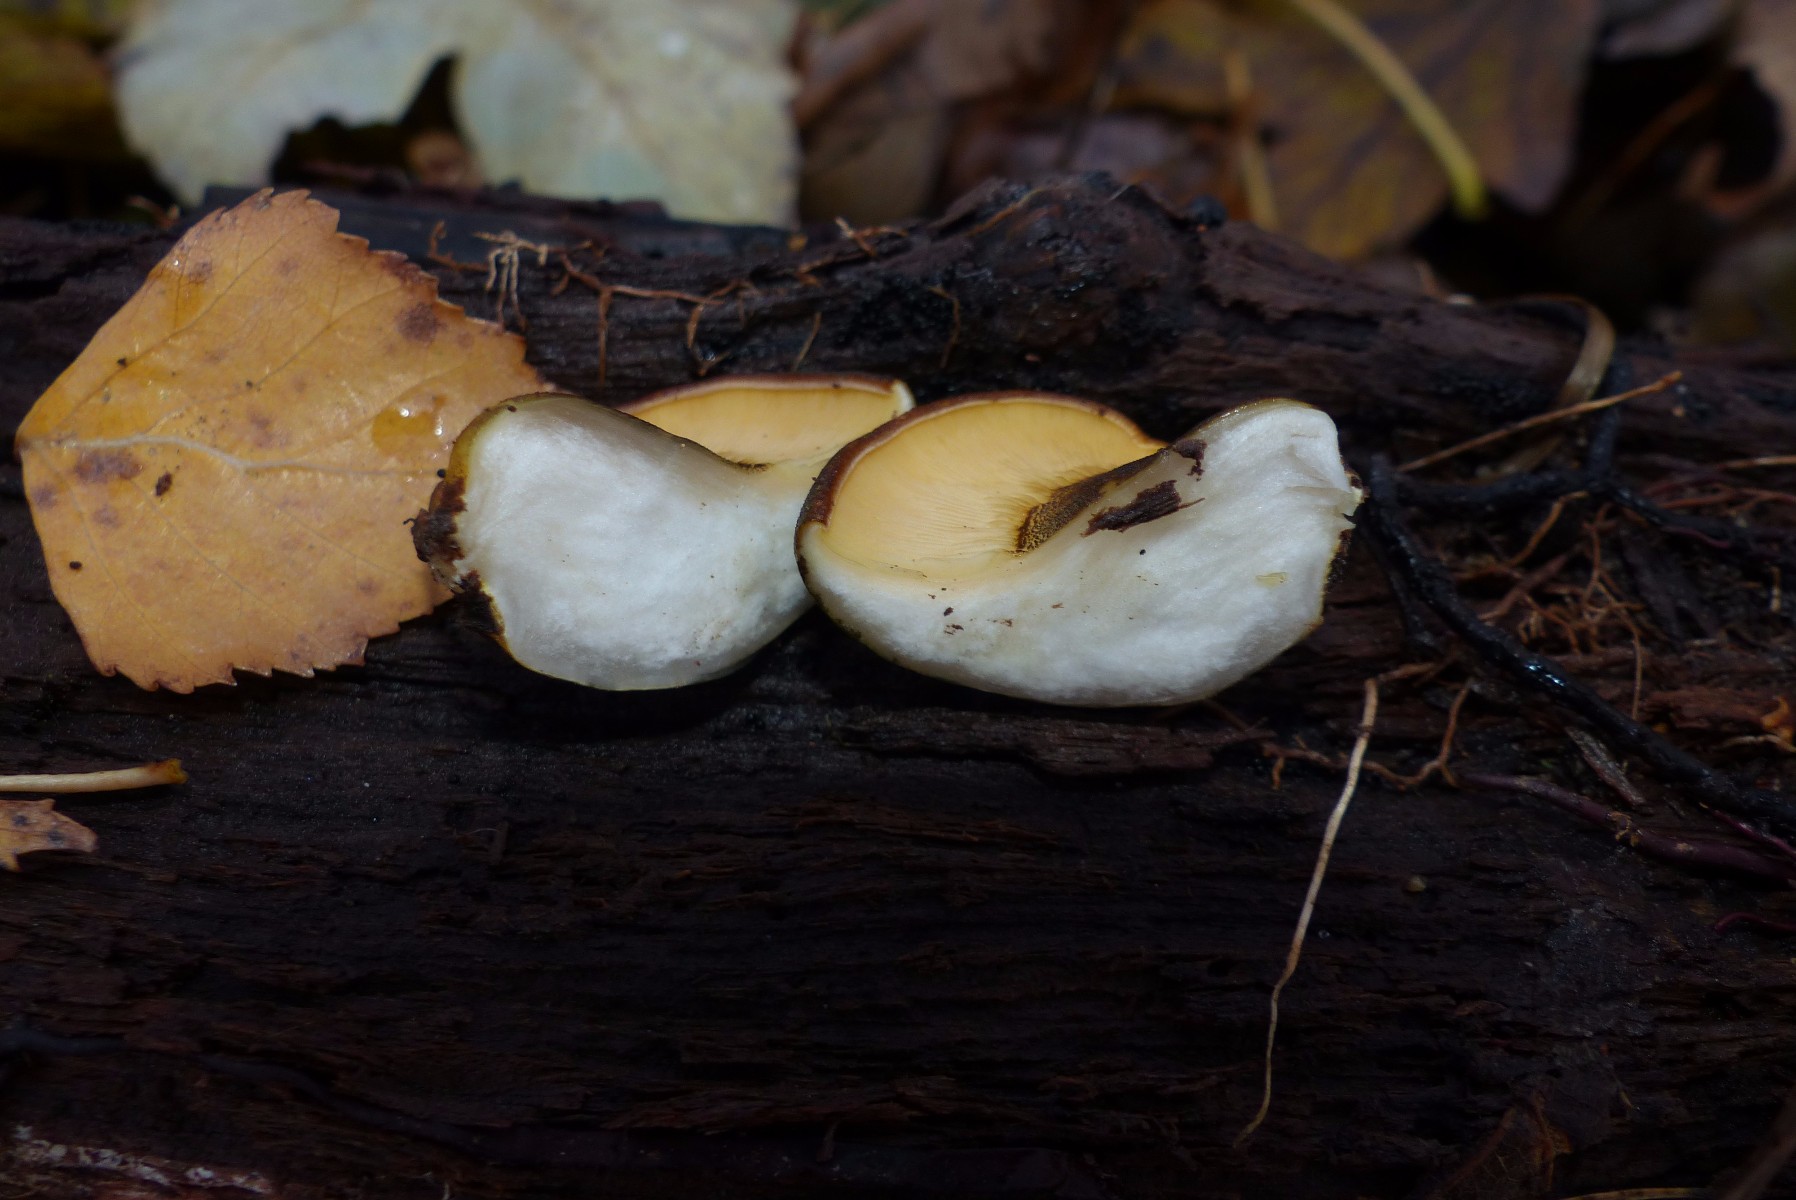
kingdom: Fungi
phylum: Basidiomycota
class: Agaricomycetes
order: Agaricales
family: Sarcomyxaceae
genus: Sarcomyxa
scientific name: Sarcomyxa serotina
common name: gummihat
